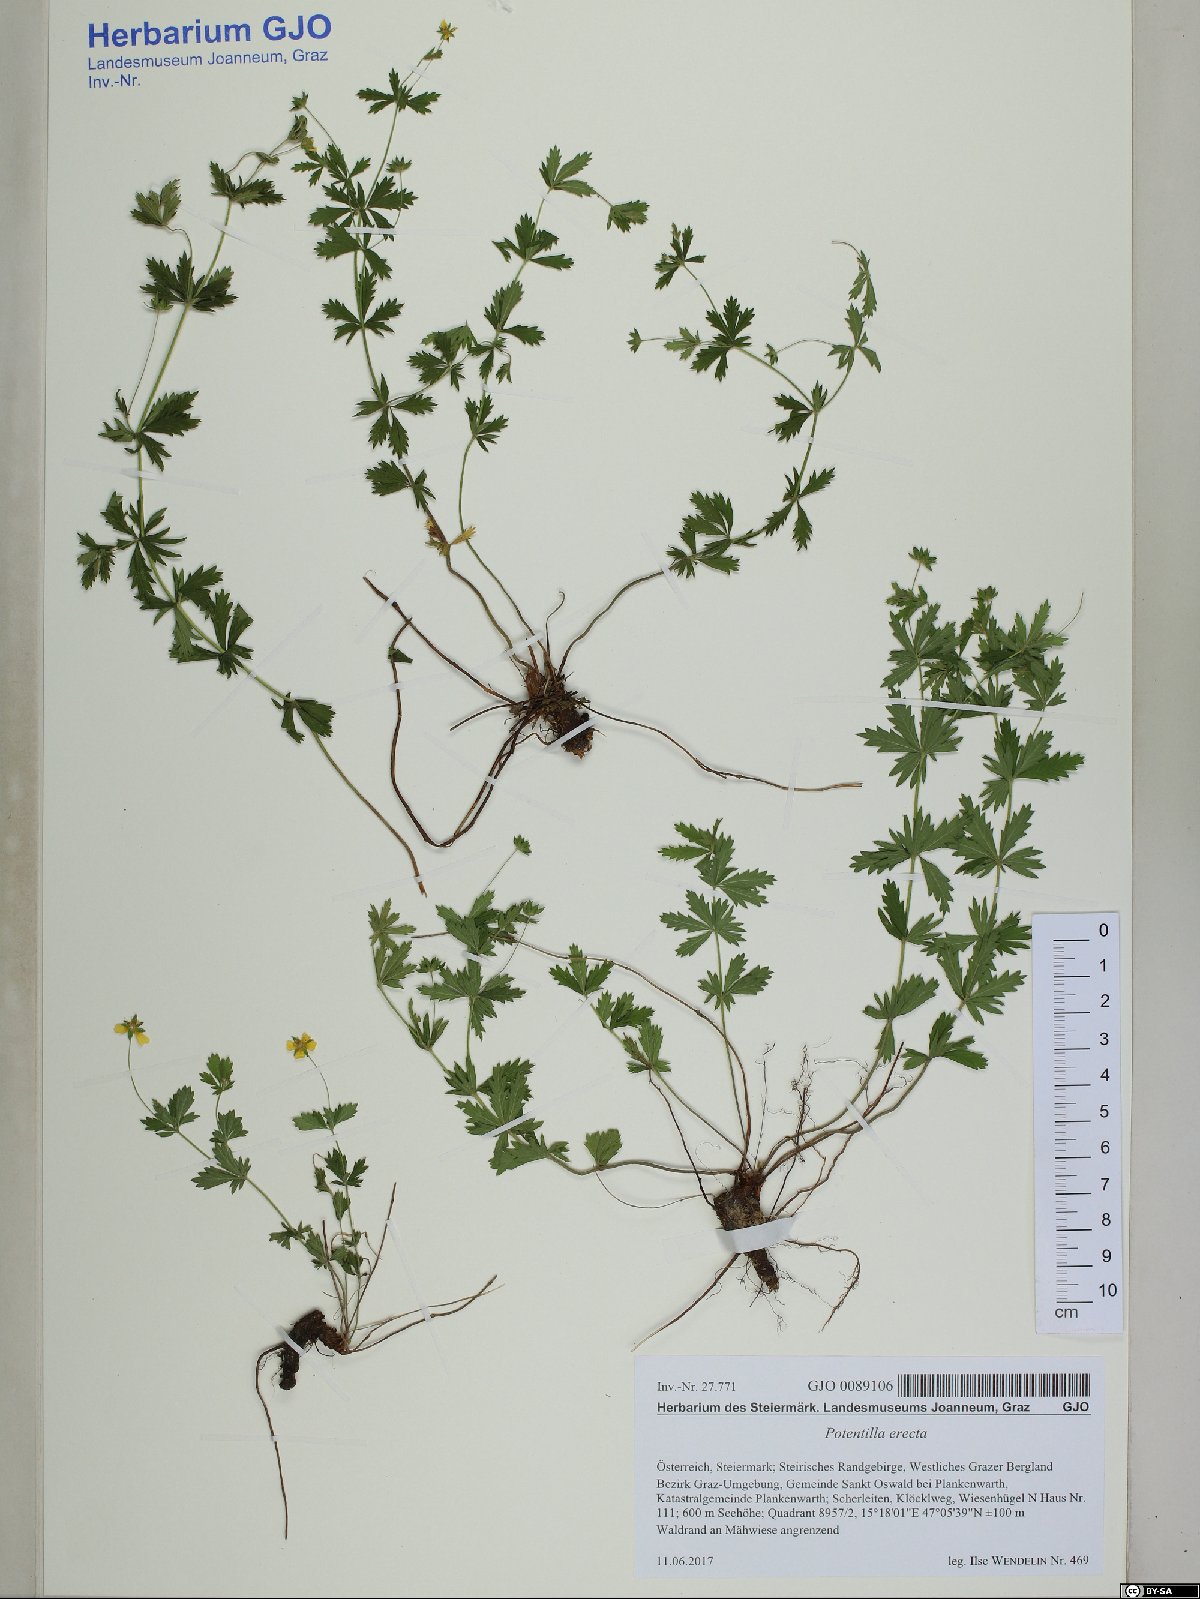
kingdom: Plantae
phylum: Tracheophyta
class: Magnoliopsida
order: Rosales
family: Rosaceae
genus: Potentilla
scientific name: Potentilla erecta
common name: Tormentil
